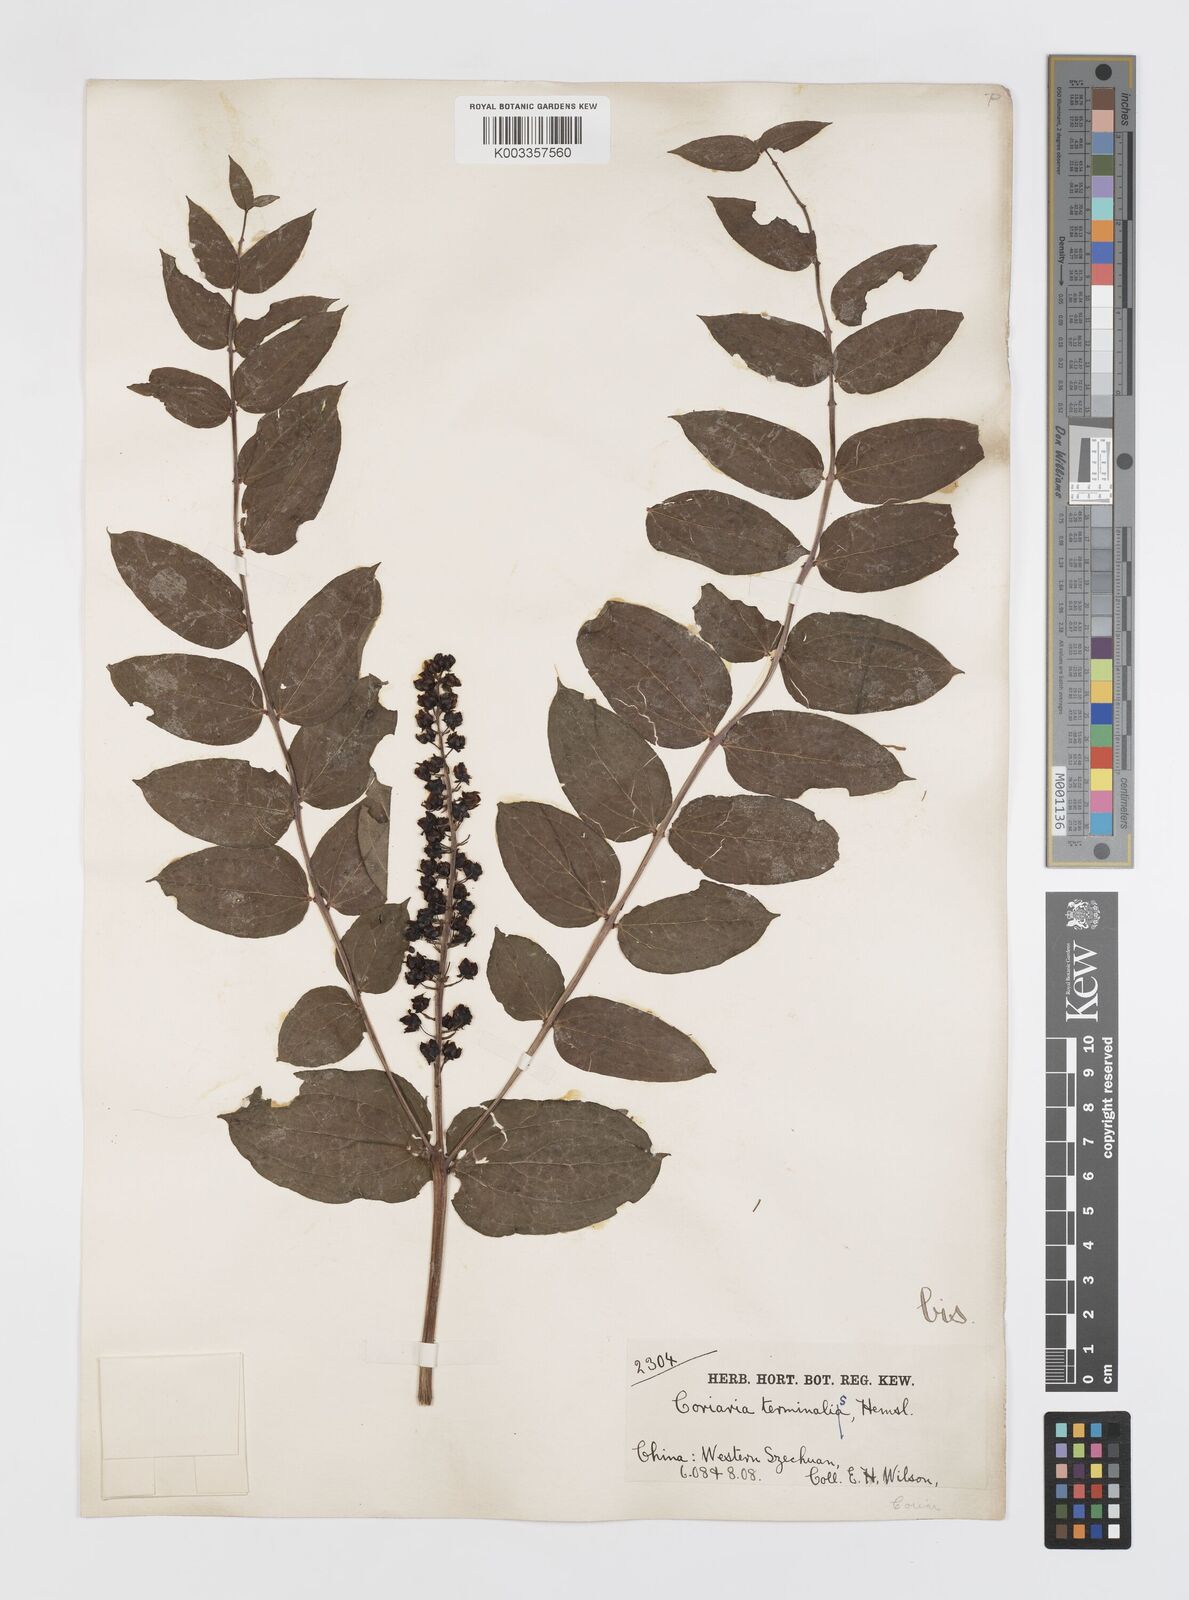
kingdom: Plantae
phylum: Tracheophyta
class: Magnoliopsida
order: Cucurbitales
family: Coriariaceae
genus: Coriaria
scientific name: Coriaria terminalis
